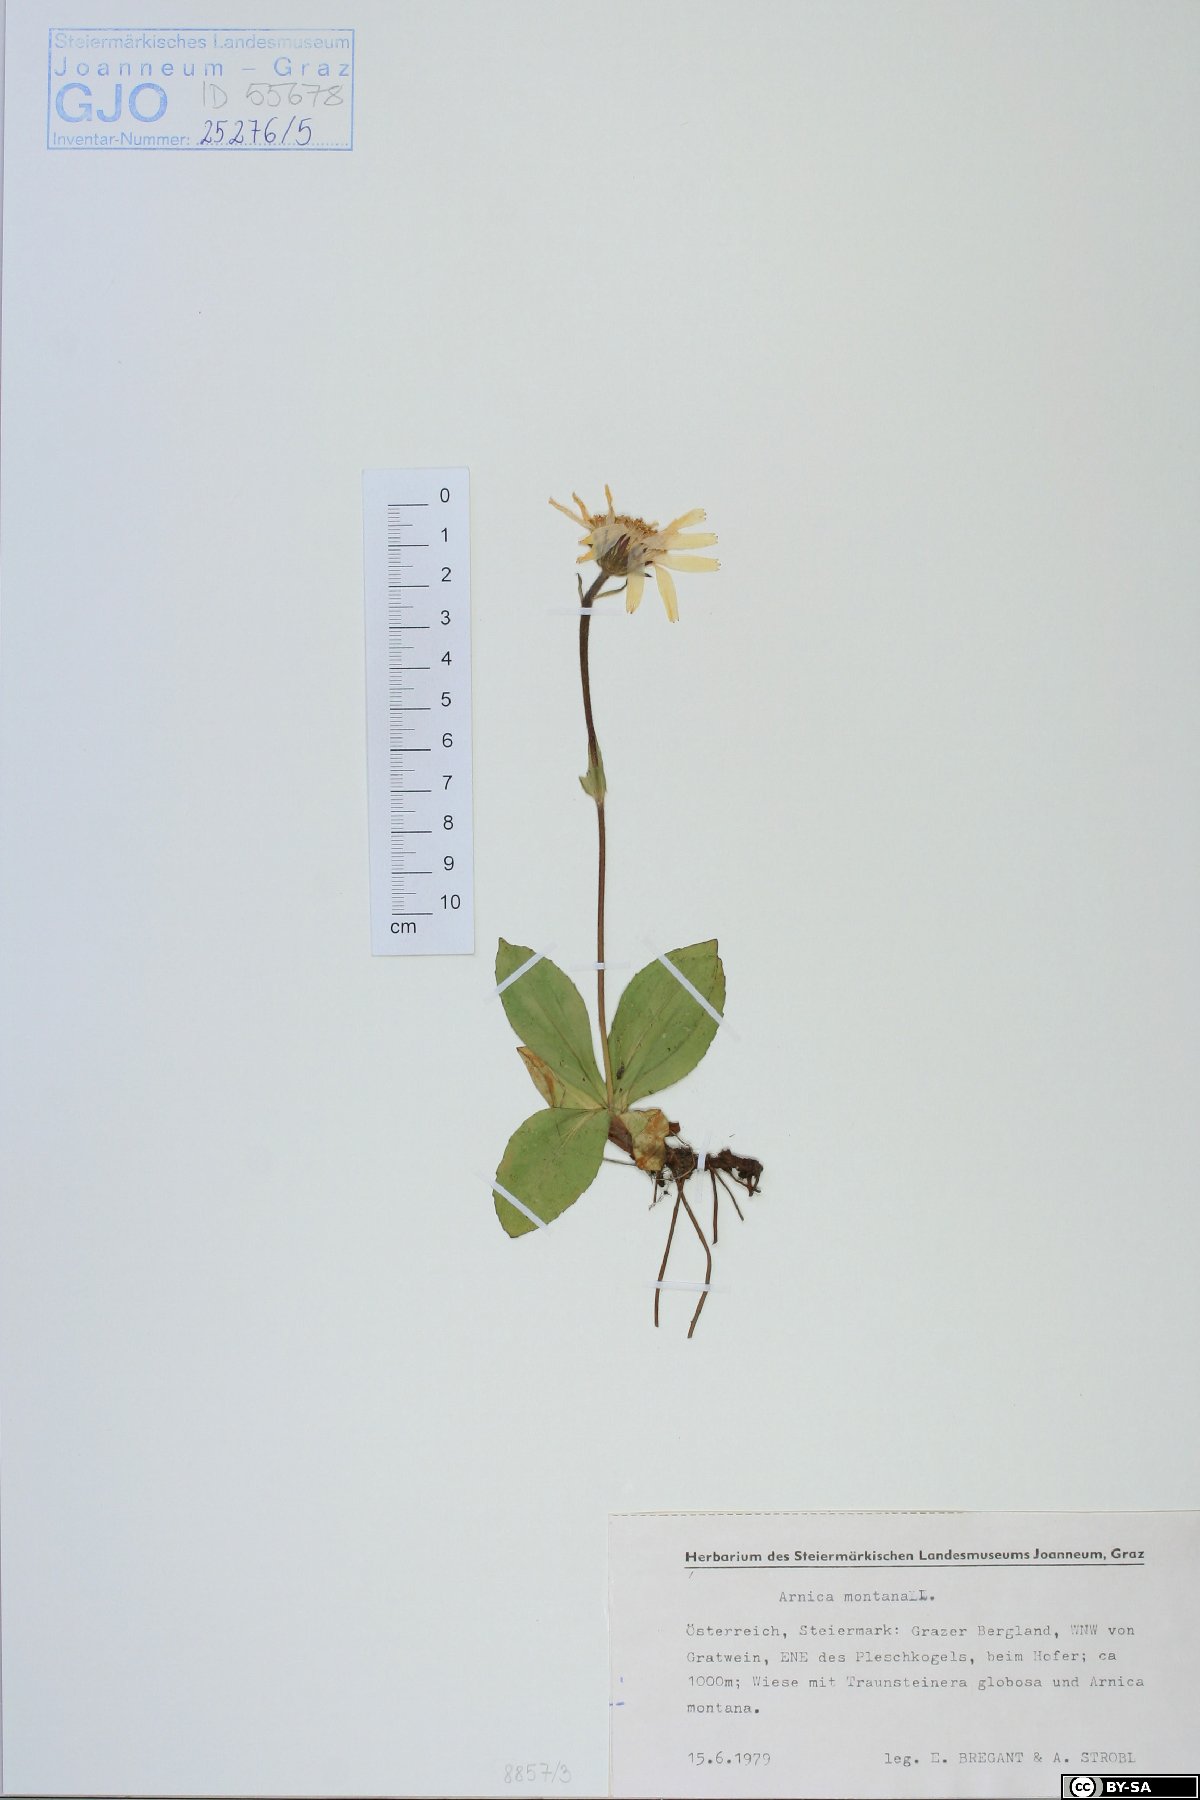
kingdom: Plantae
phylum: Tracheophyta
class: Magnoliopsida
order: Asterales
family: Asteraceae
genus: Arnica
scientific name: Arnica montana
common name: Leopard's bane
